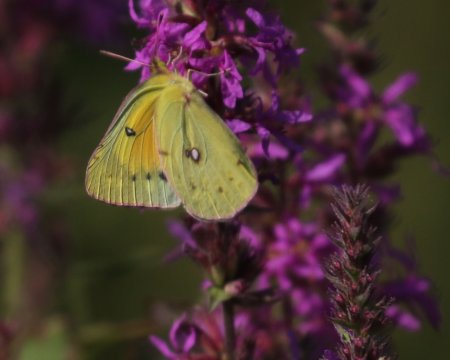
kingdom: Animalia
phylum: Arthropoda
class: Insecta
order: Lepidoptera
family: Pieridae
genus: Colias
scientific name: Colias eurytheme
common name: Orange Sulphur
